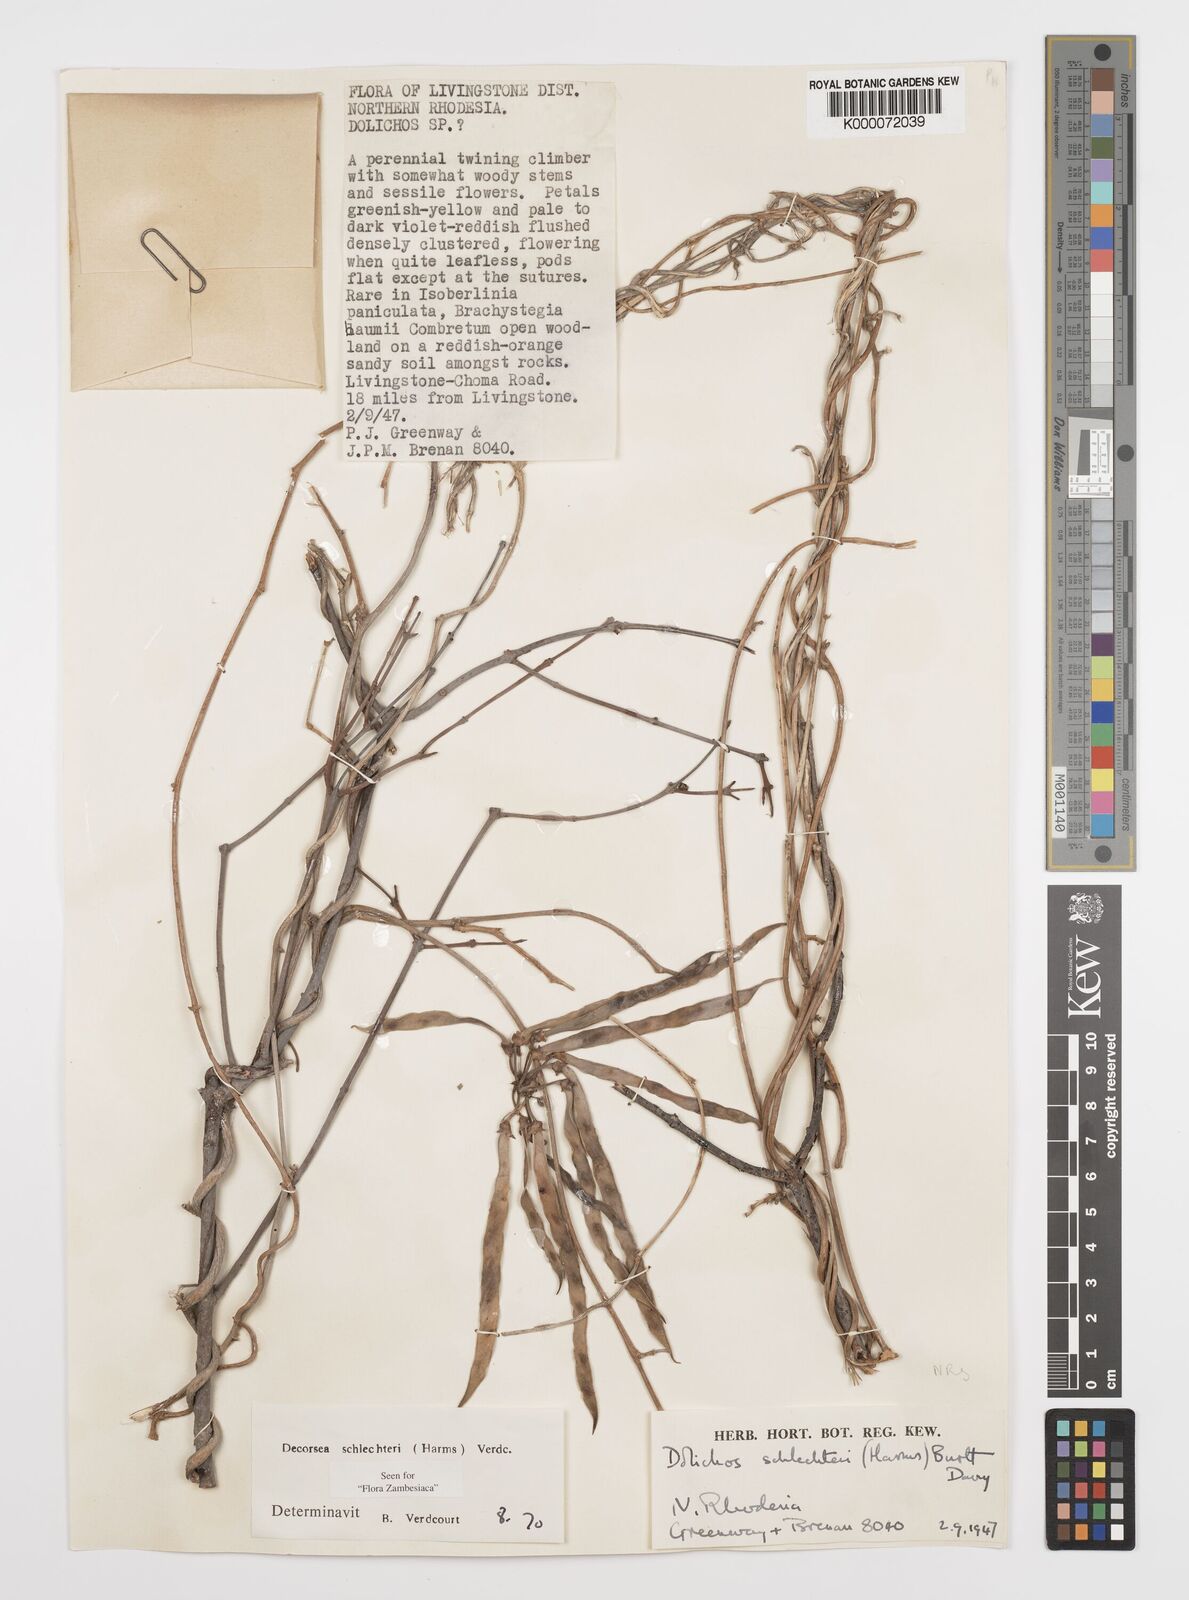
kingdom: Plantae
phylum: Tracheophyta
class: Magnoliopsida
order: Fabales
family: Fabaceae
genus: Decorsea
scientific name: Decorsea schlechteri
